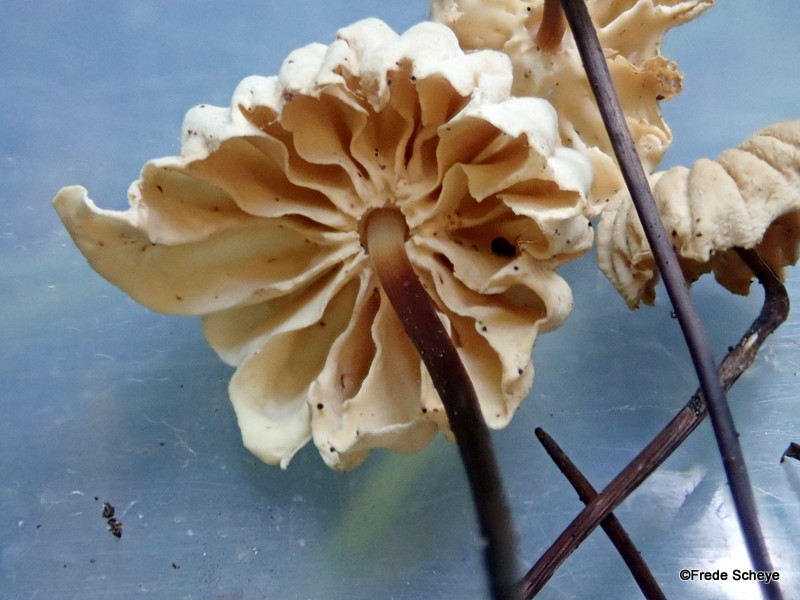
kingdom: Fungi
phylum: Basidiomycota
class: Agaricomycetes
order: Agaricales
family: Marasmiaceae
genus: Marasmius
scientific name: Marasmius rotula
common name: hjul-bruskhat
